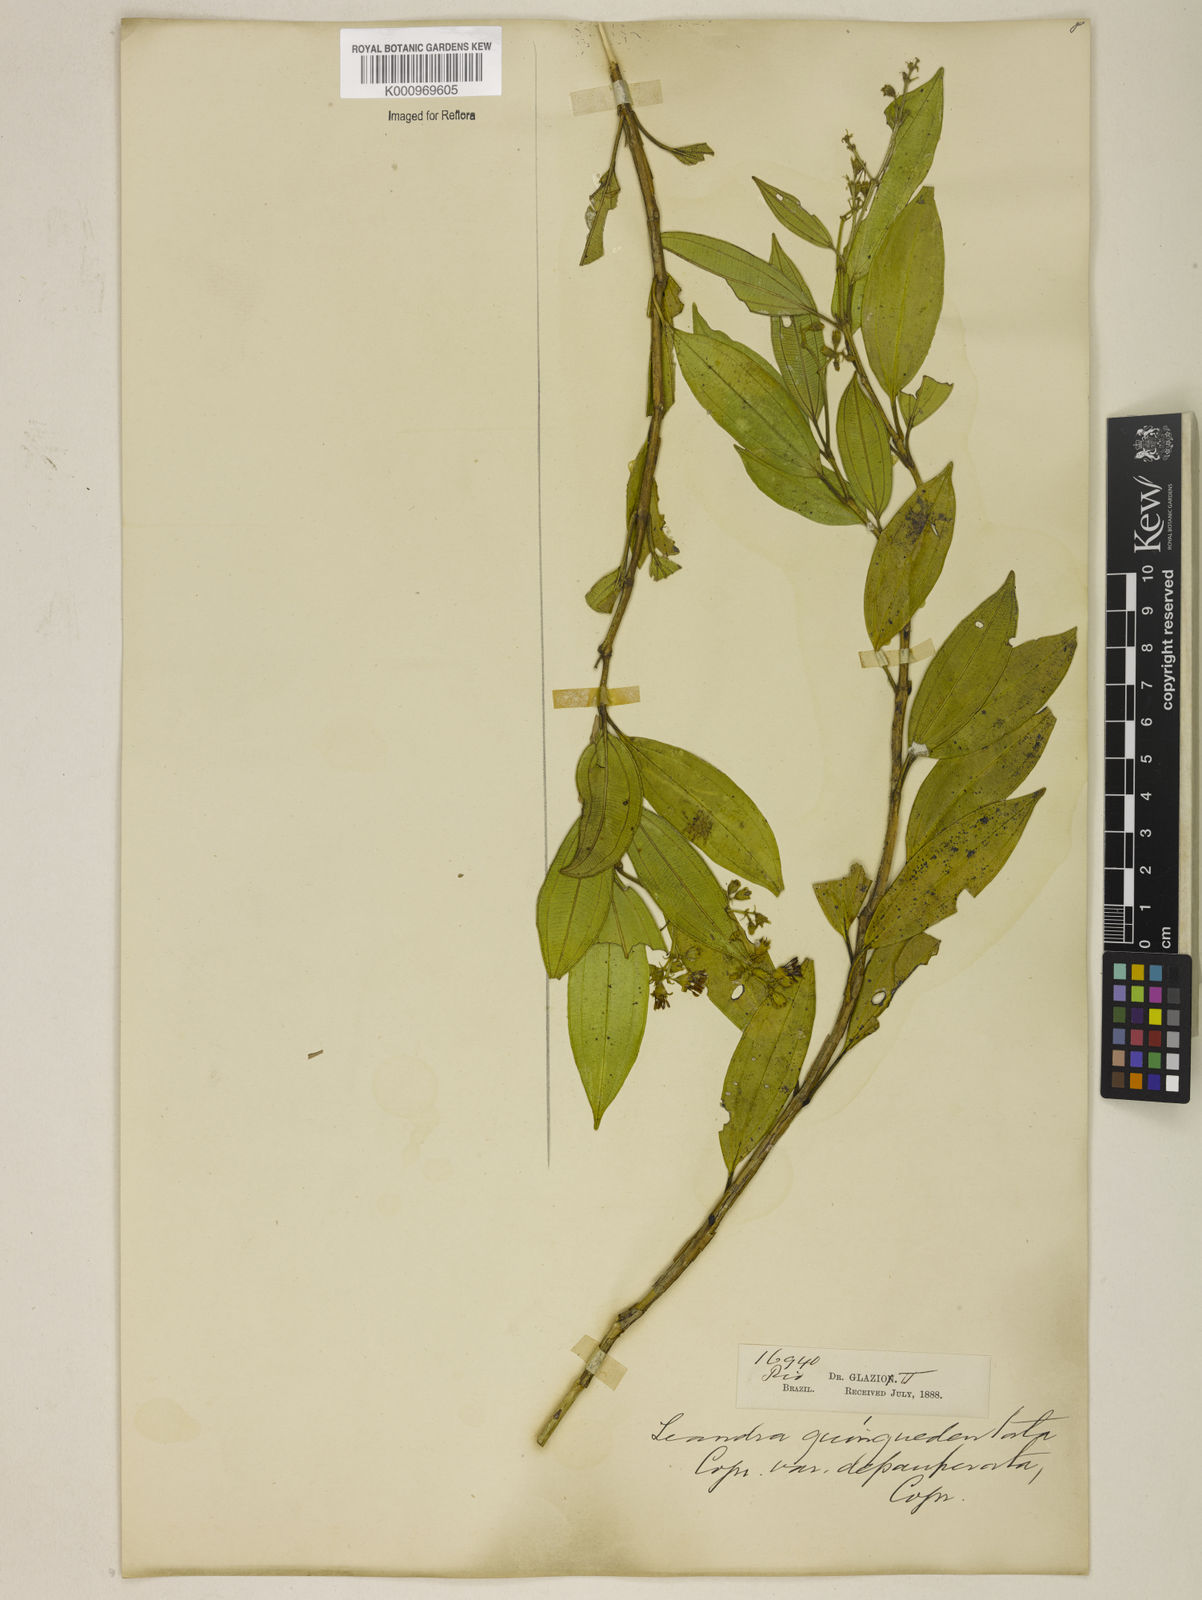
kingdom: Plantae
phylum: Tracheophyta
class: Magnoliopsida
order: Myrtales
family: Melastomataceae
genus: Miconia
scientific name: Miconia quinquedentata
